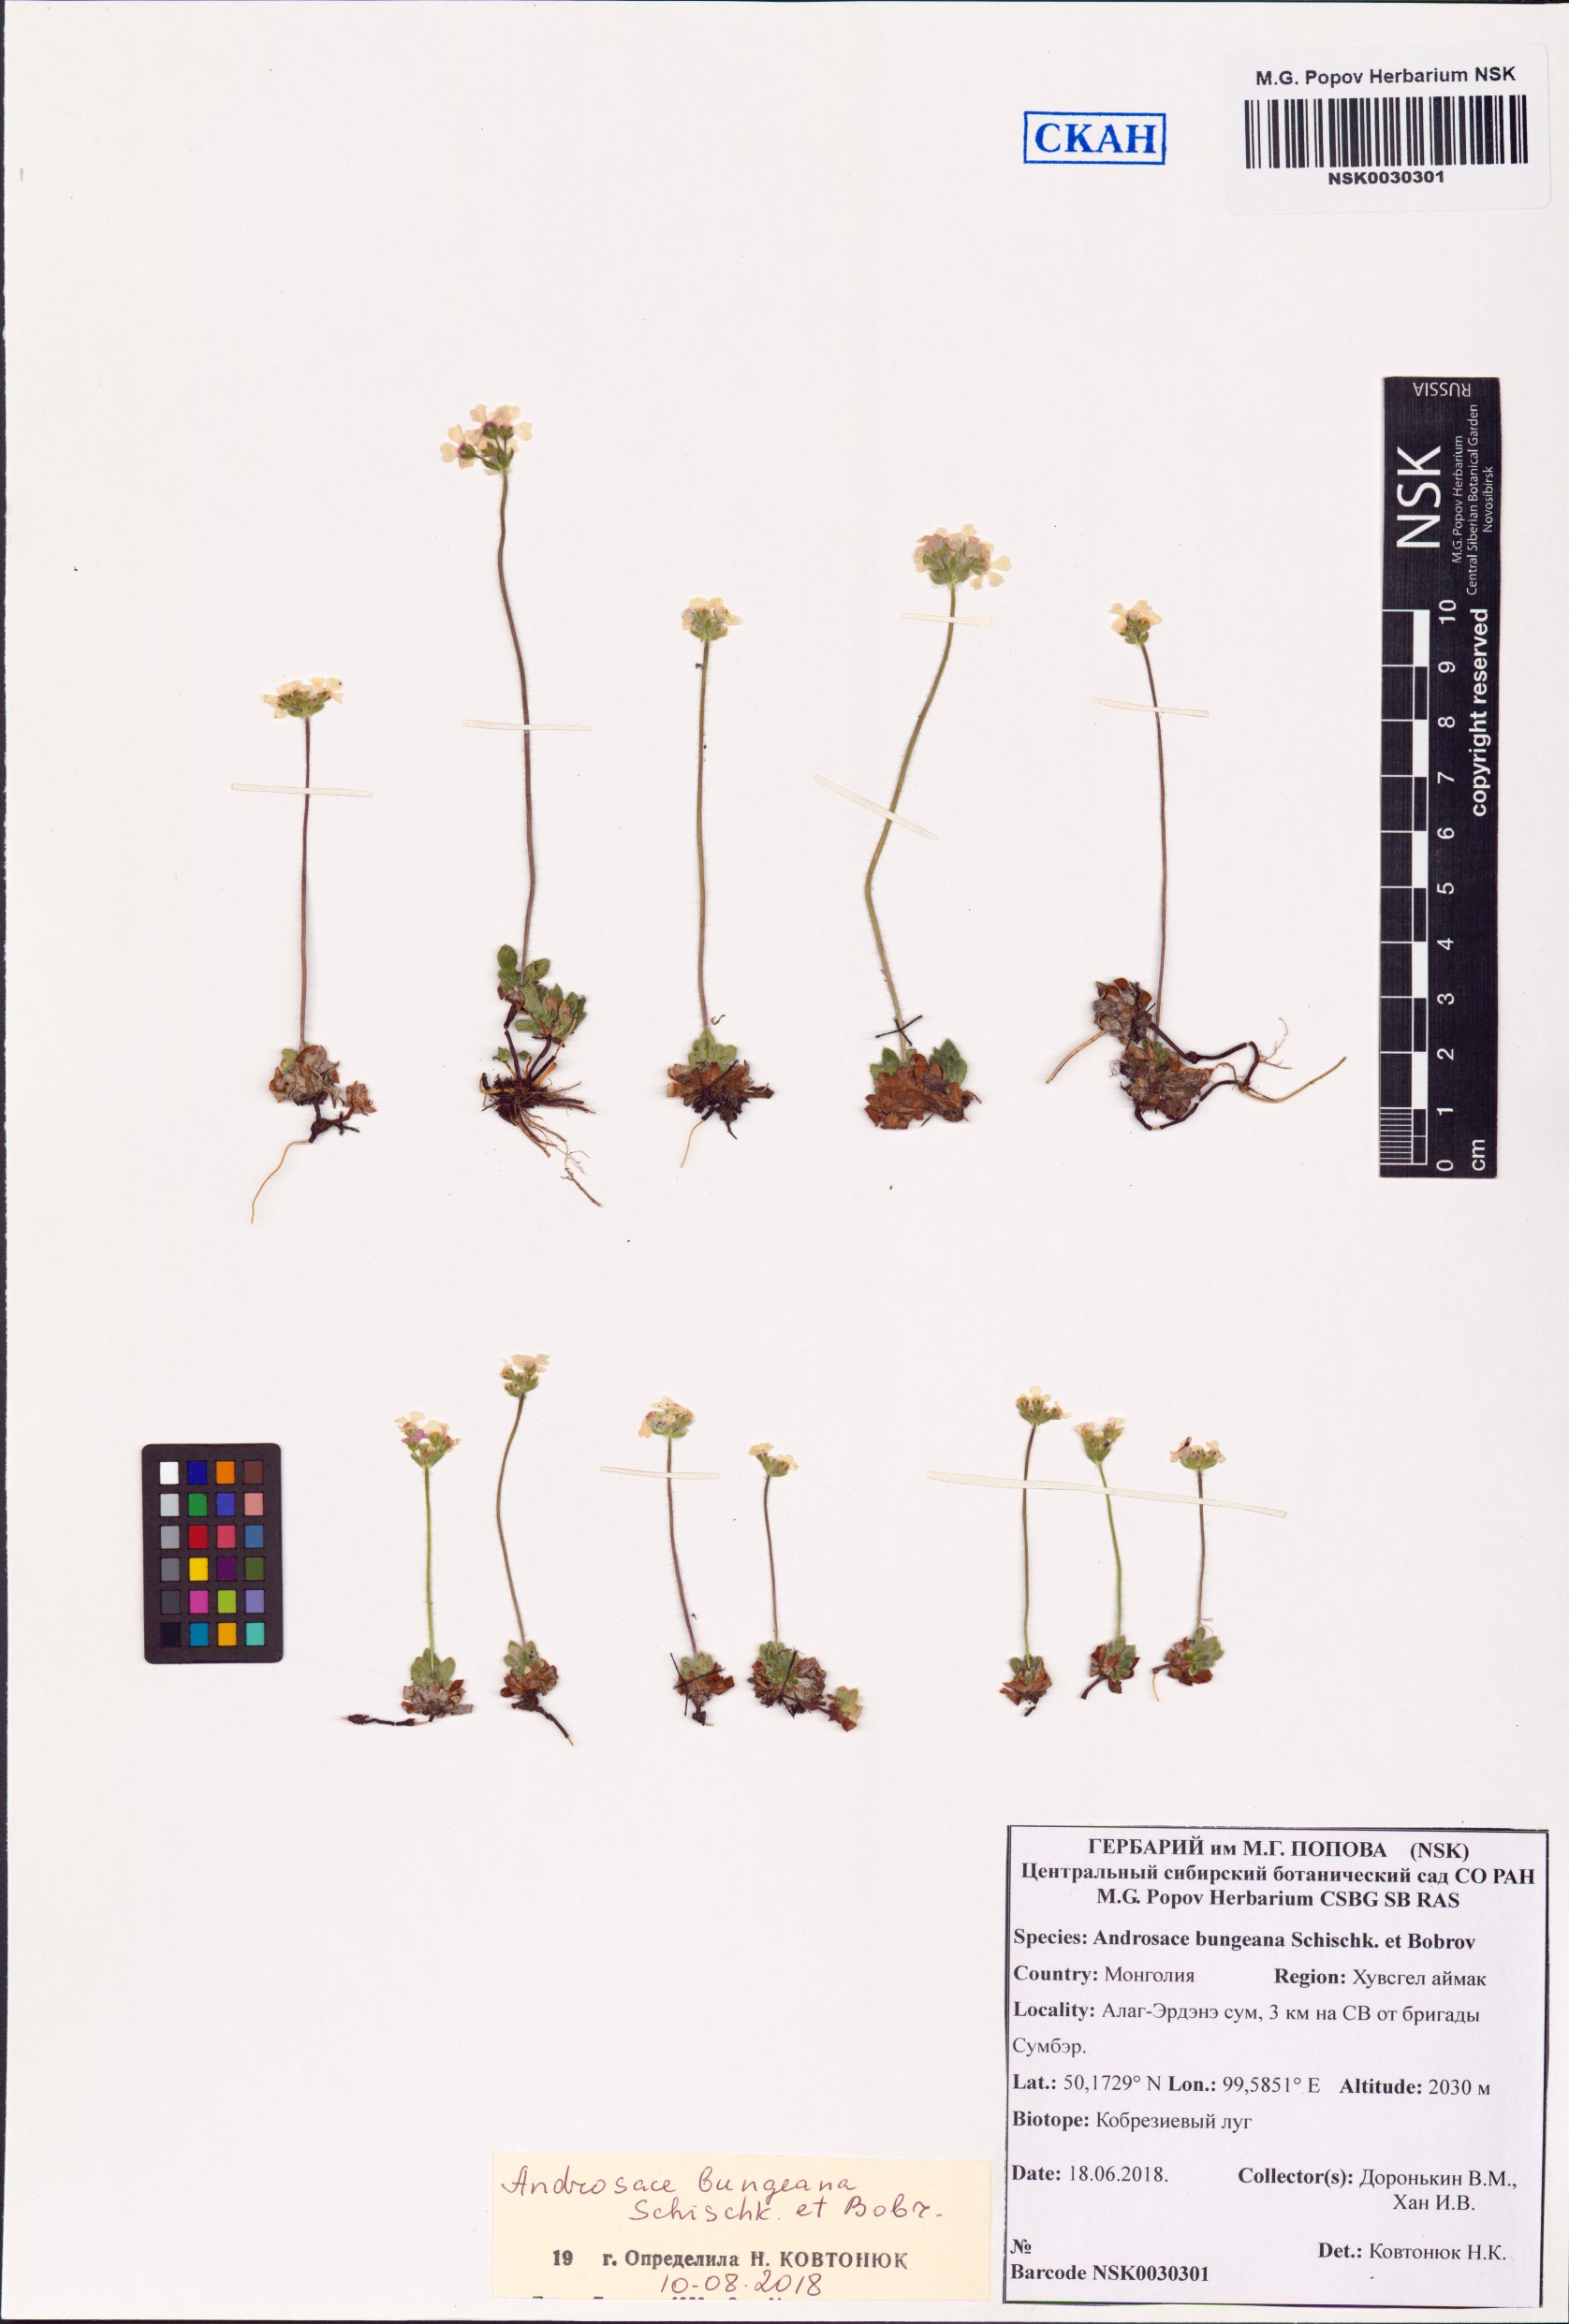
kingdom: Plantae
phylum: Tracheophyta
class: Magnoliopsida
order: Ericales
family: Primulaceae
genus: Androsace
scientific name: Androsace bungeana
